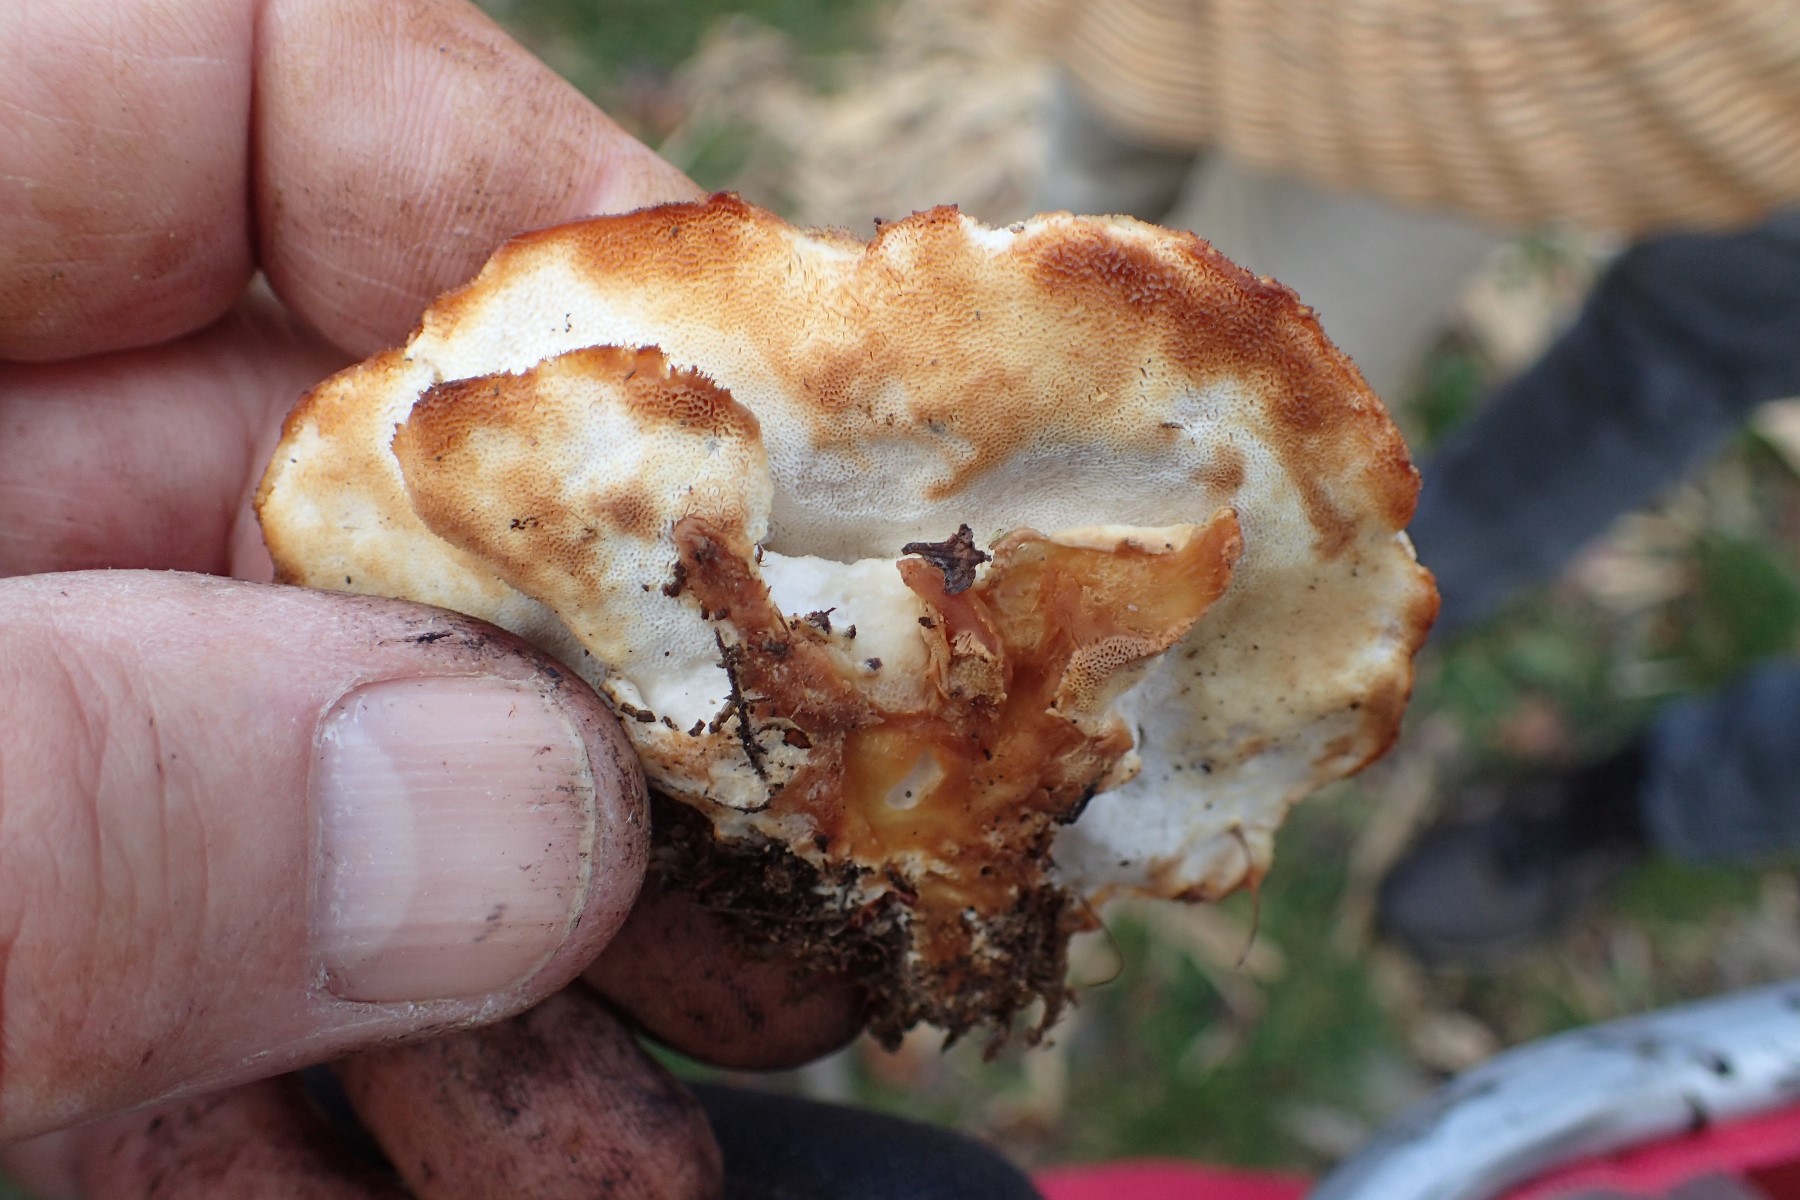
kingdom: Fungi
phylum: Basidiomycota
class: Agaricomycetes
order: Polyporales
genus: Fuscopostia
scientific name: Fuscopostia fragilis
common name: brunende kødporesvamp
